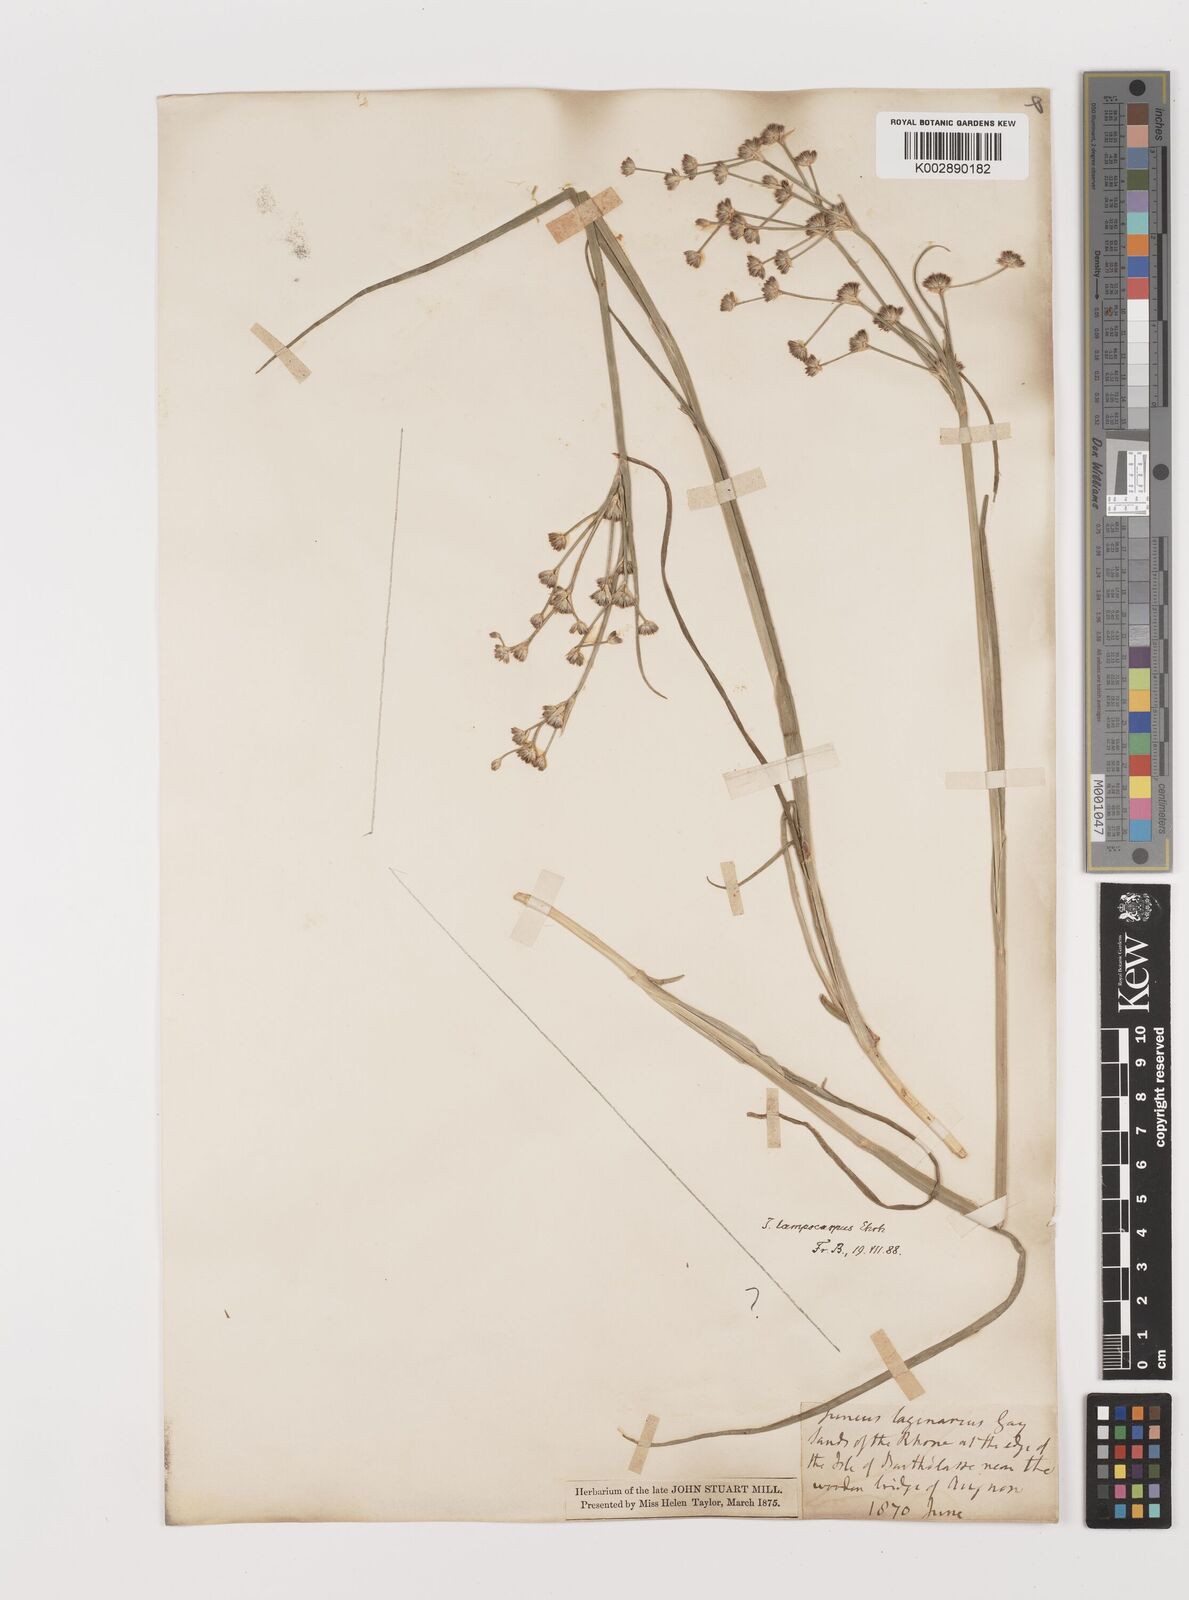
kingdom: Plantae
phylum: Tracheophyta
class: Liliopsida
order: Poales
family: Juncaceae
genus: Juncus
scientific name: Juncus articulatus
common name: Jointed rush
